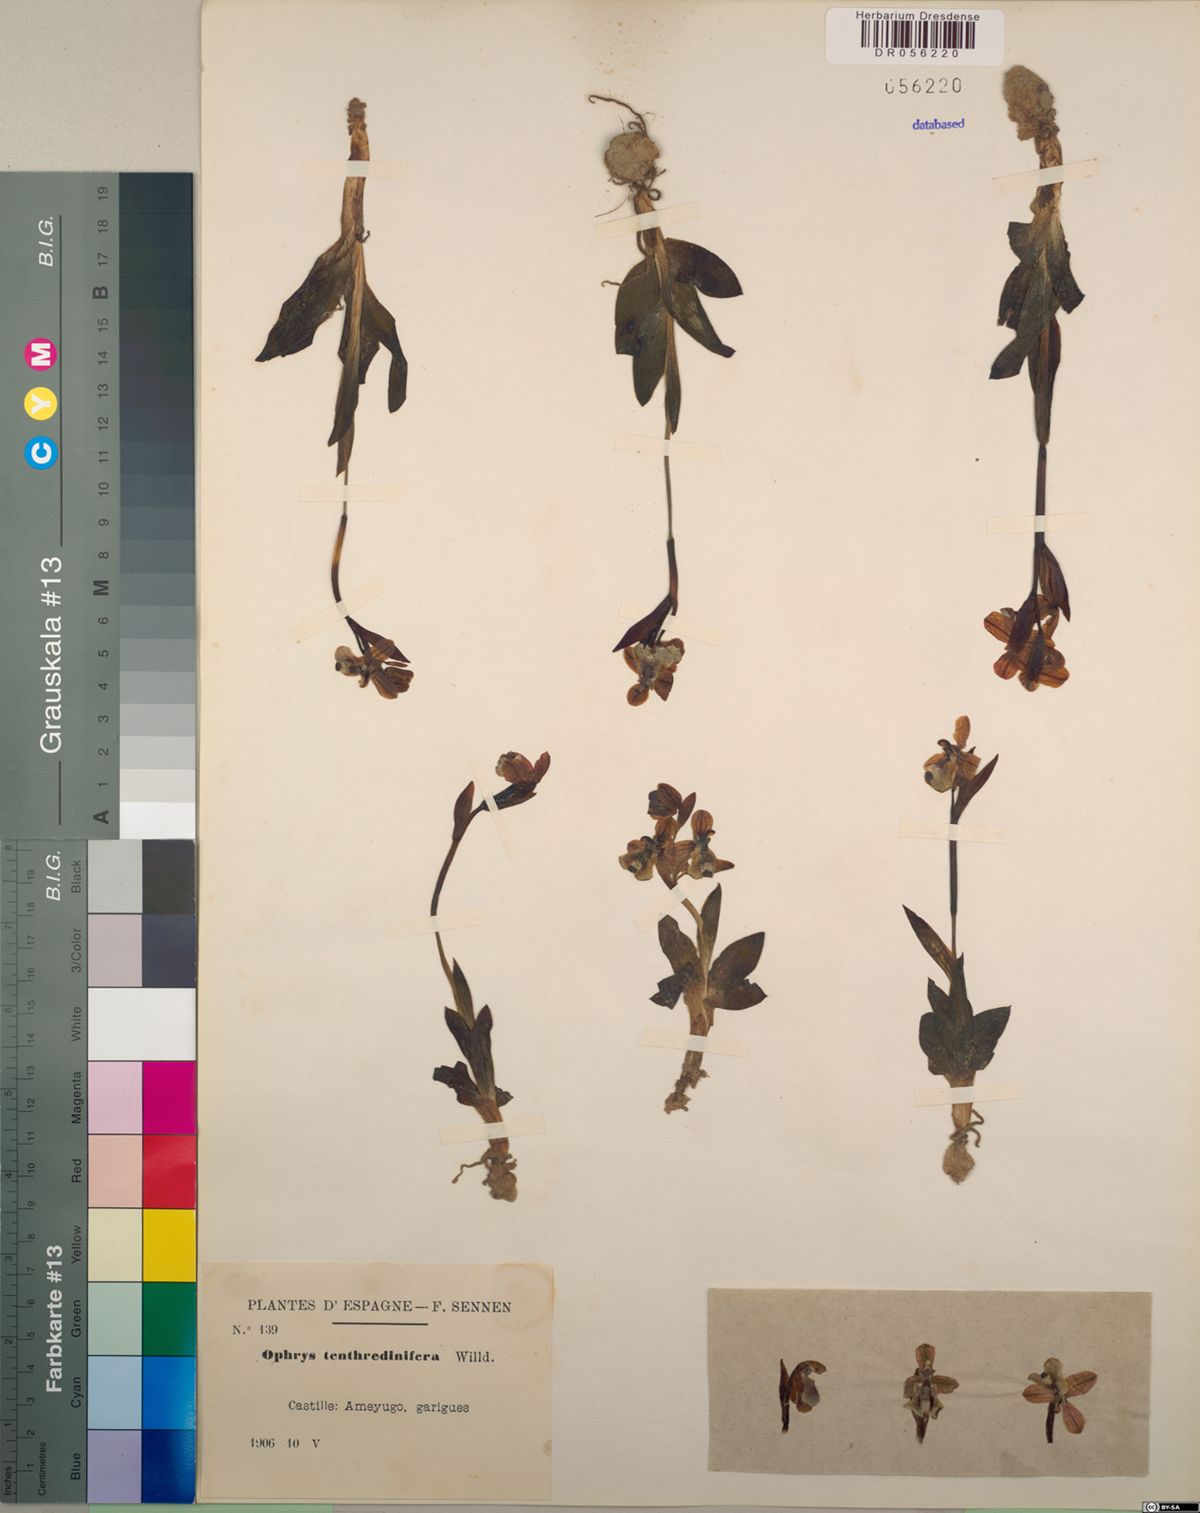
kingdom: Plantae
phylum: Tracheophyta
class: Liliopsida
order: Asparagales
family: Orchidaceae
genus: Ophrys
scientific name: Ophrys tenthredinifera
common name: Sawfly orchid
